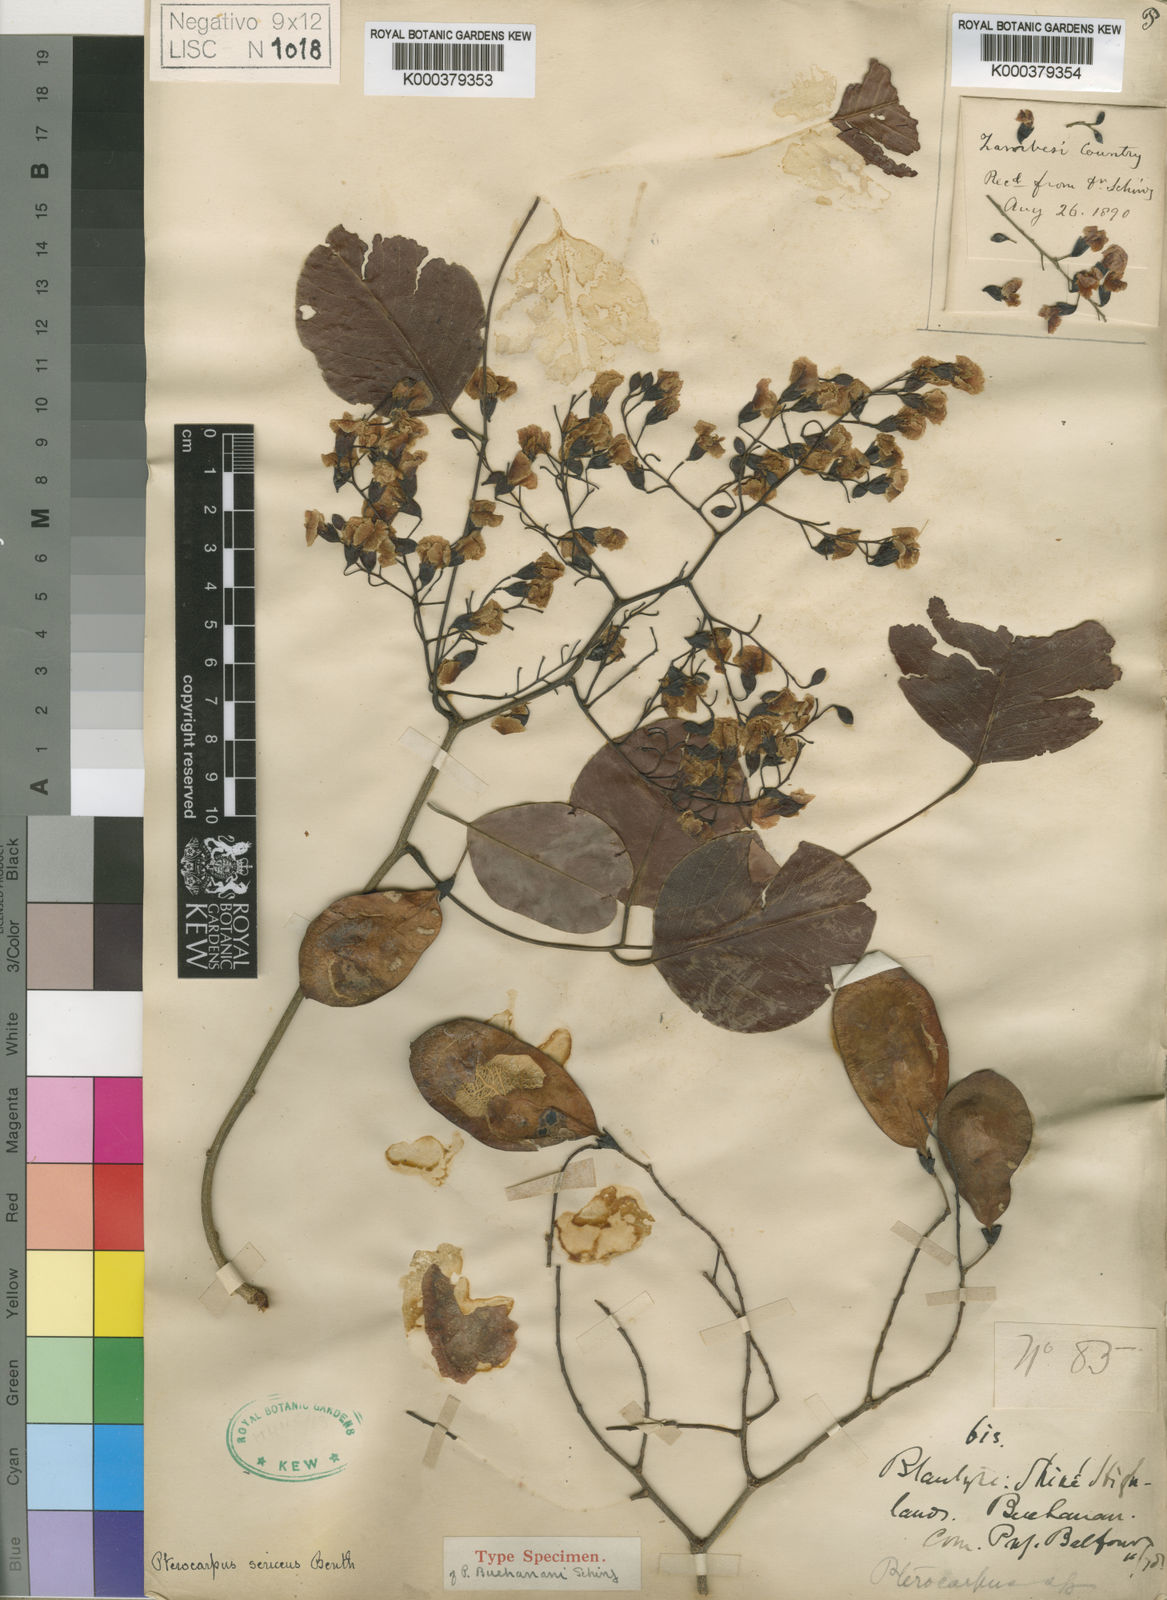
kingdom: Plantae
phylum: Tracheophyta
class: Magnoliopsida
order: Fabales
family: Fabaceae
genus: Pterocarpus
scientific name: Pterocarpus rotundifolius
